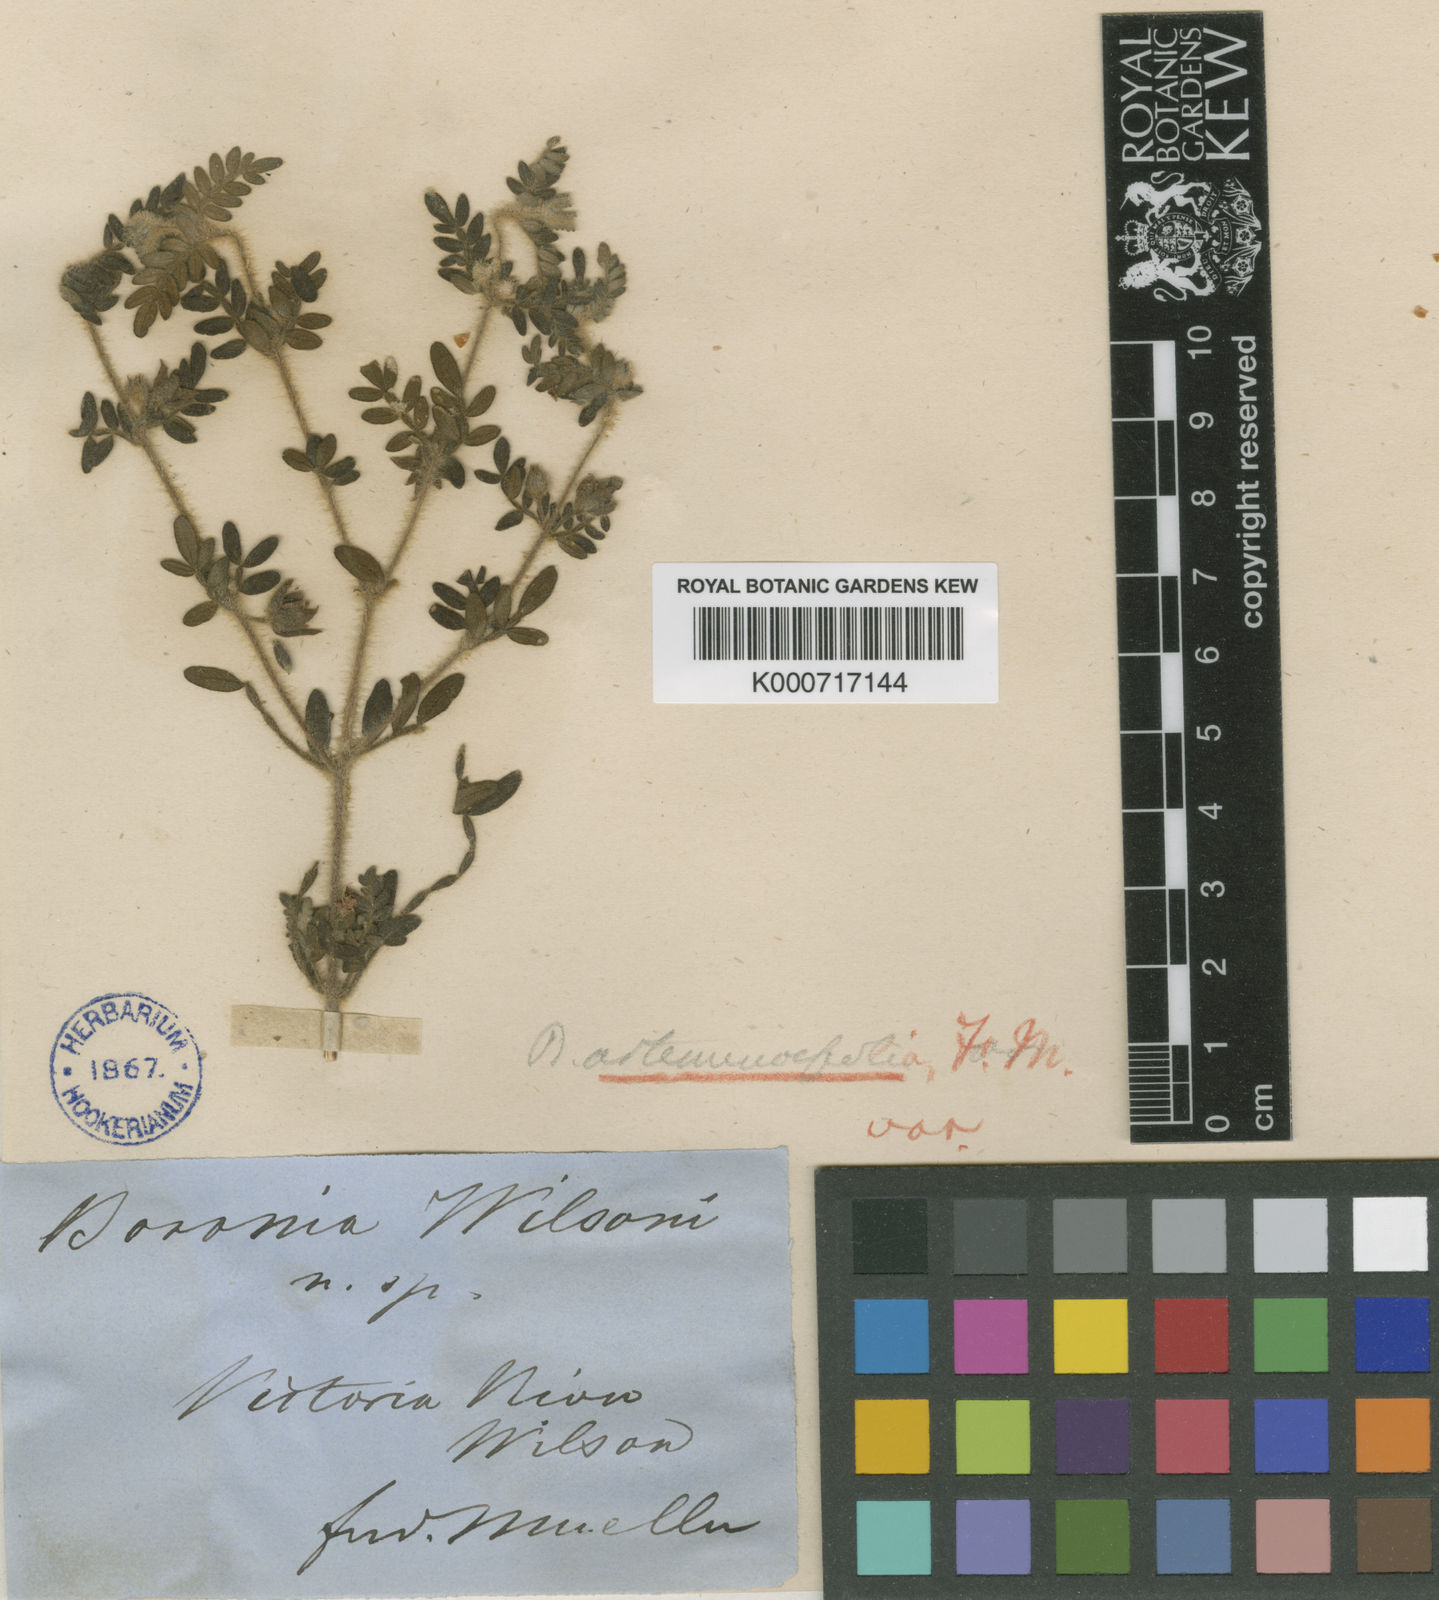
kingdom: Plantae
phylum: Tracheophyta
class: Magnoliopsida
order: Sapindales
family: Rutaceae
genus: Boronia
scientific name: Boronia filicifolia
